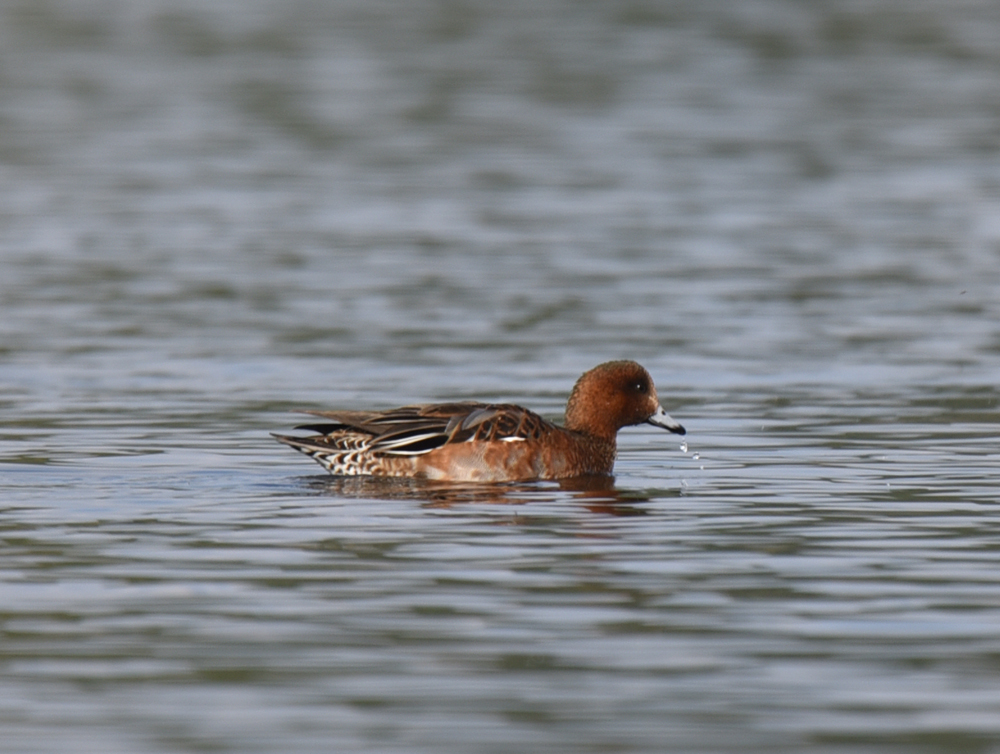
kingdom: Animalia
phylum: Chordata
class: Aves
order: Anseriformes
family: Anatidae
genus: Mareca
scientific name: Mareca penelope
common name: Eurasian wigeon
